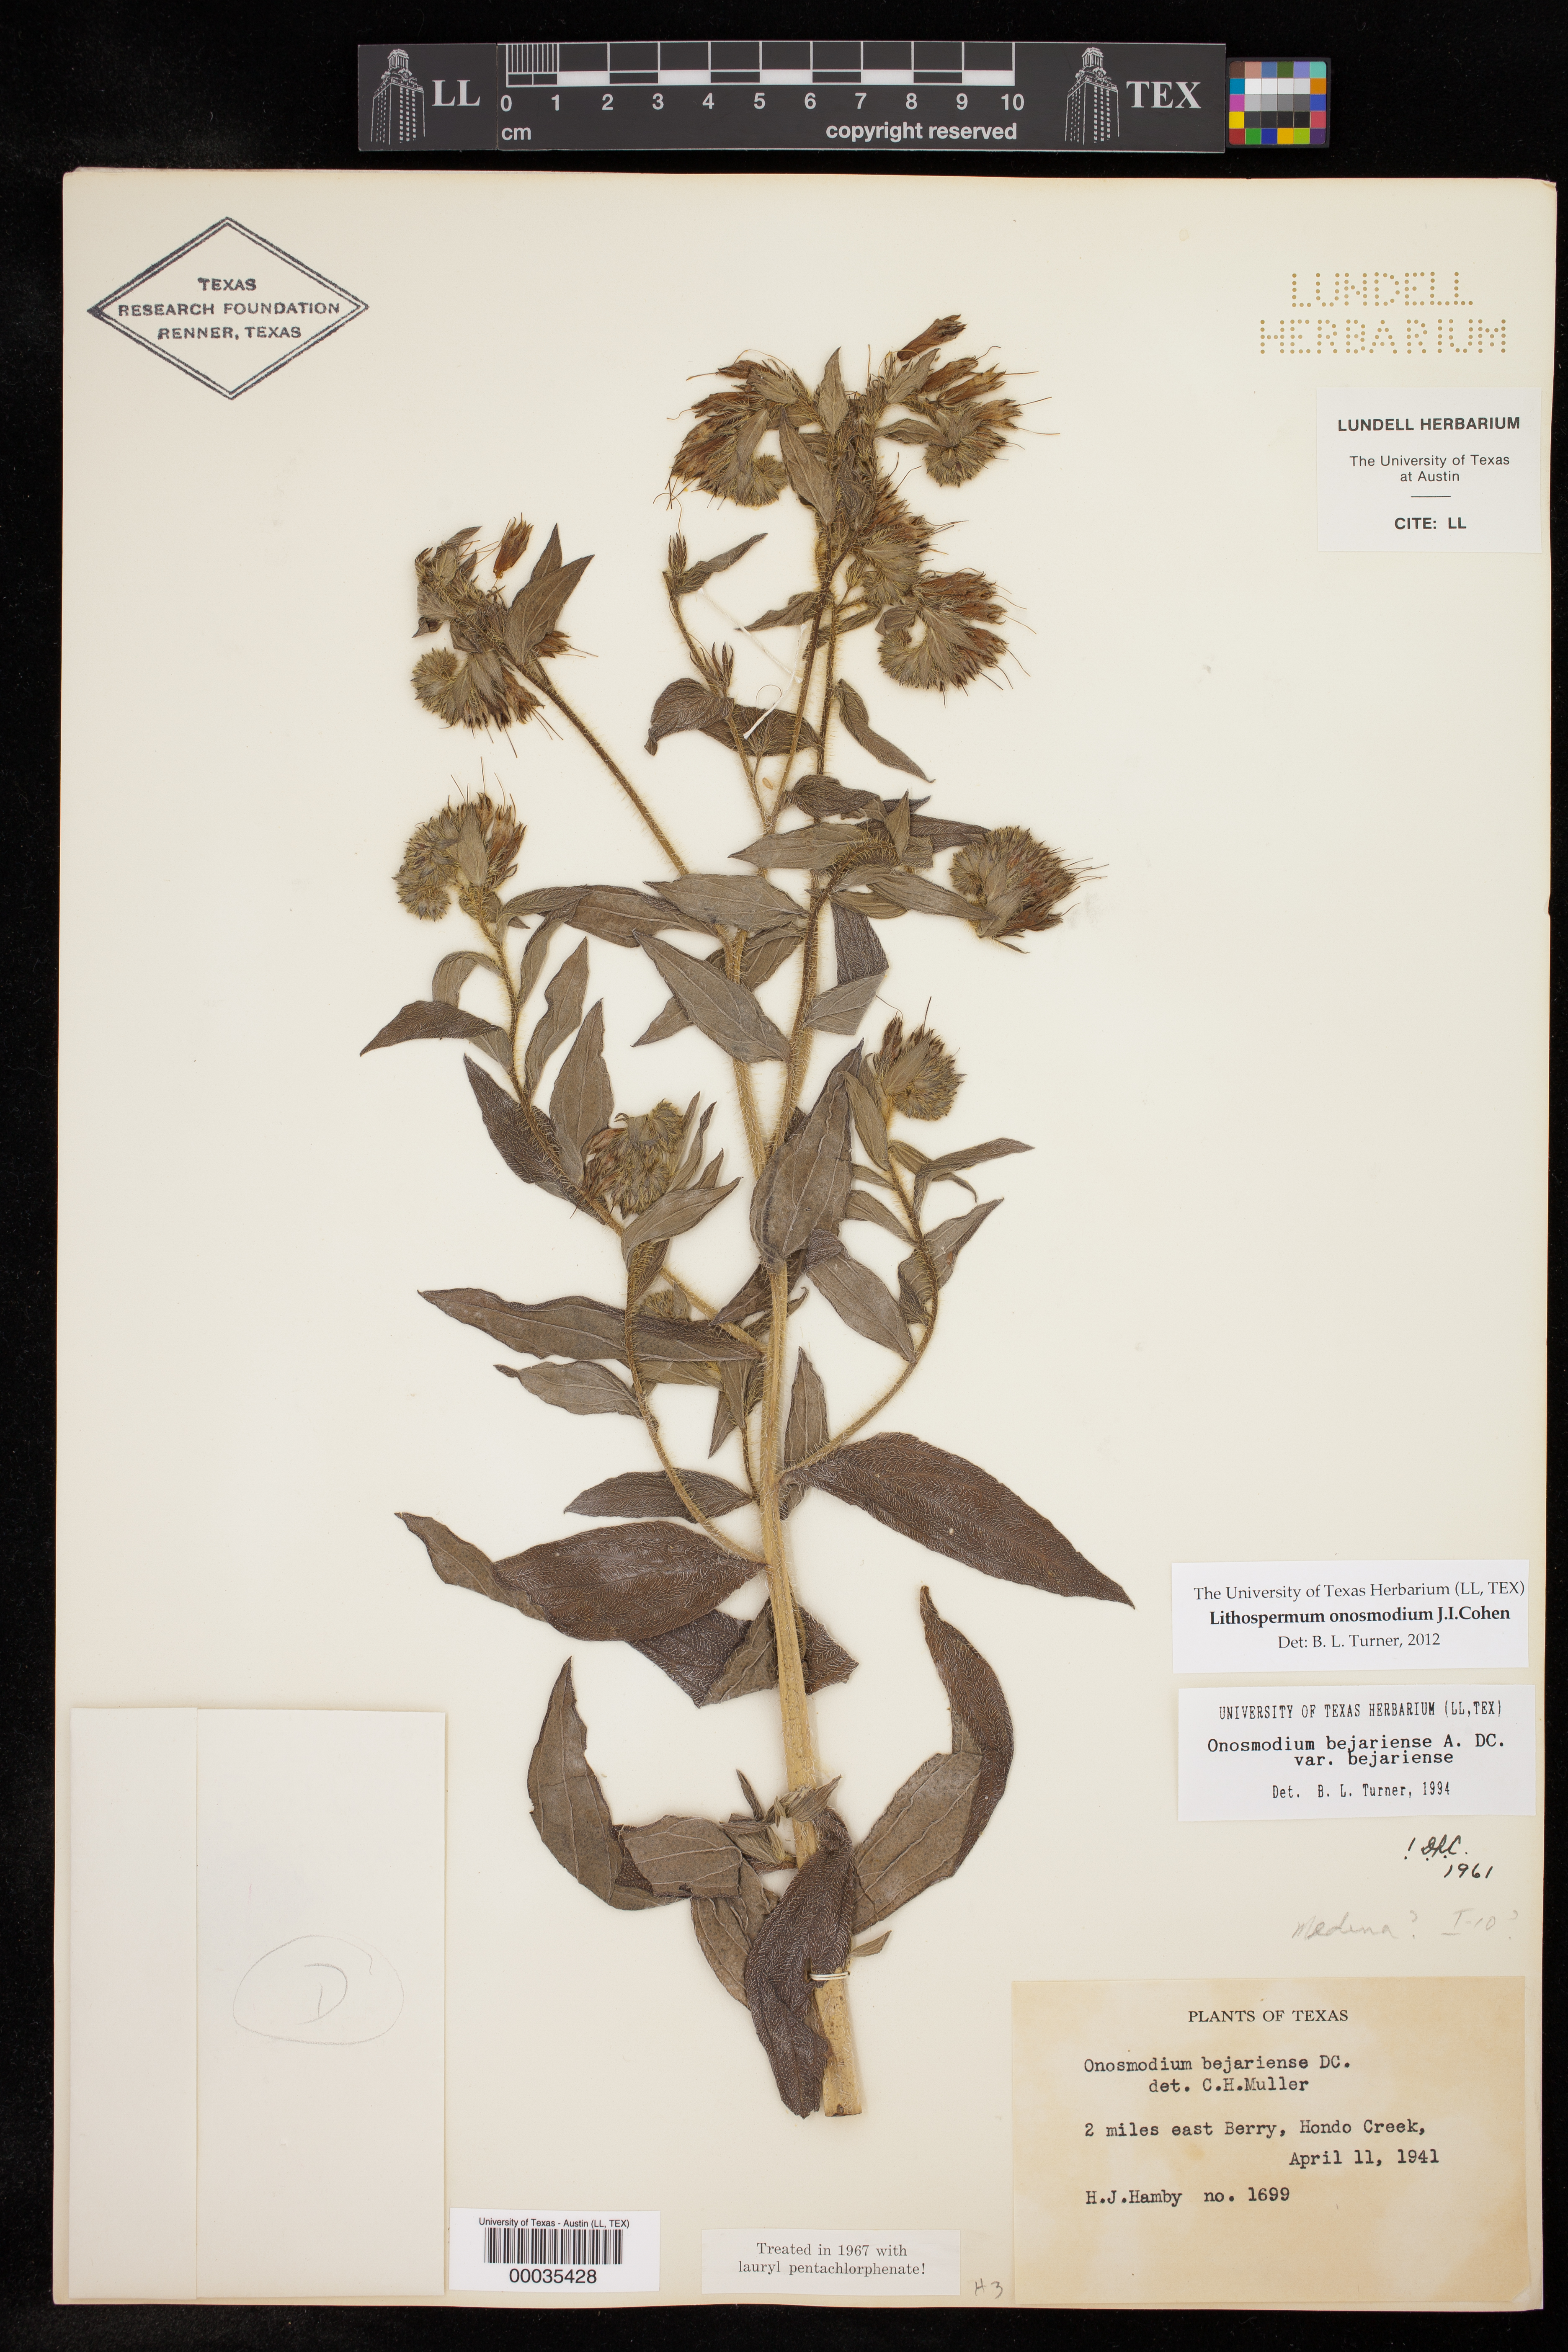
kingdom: Plantae
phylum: Tracheophyta
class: Magnoliopsida
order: Boraginales
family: Boraginaceae
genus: Lithospermum
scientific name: Lithospermum molle
